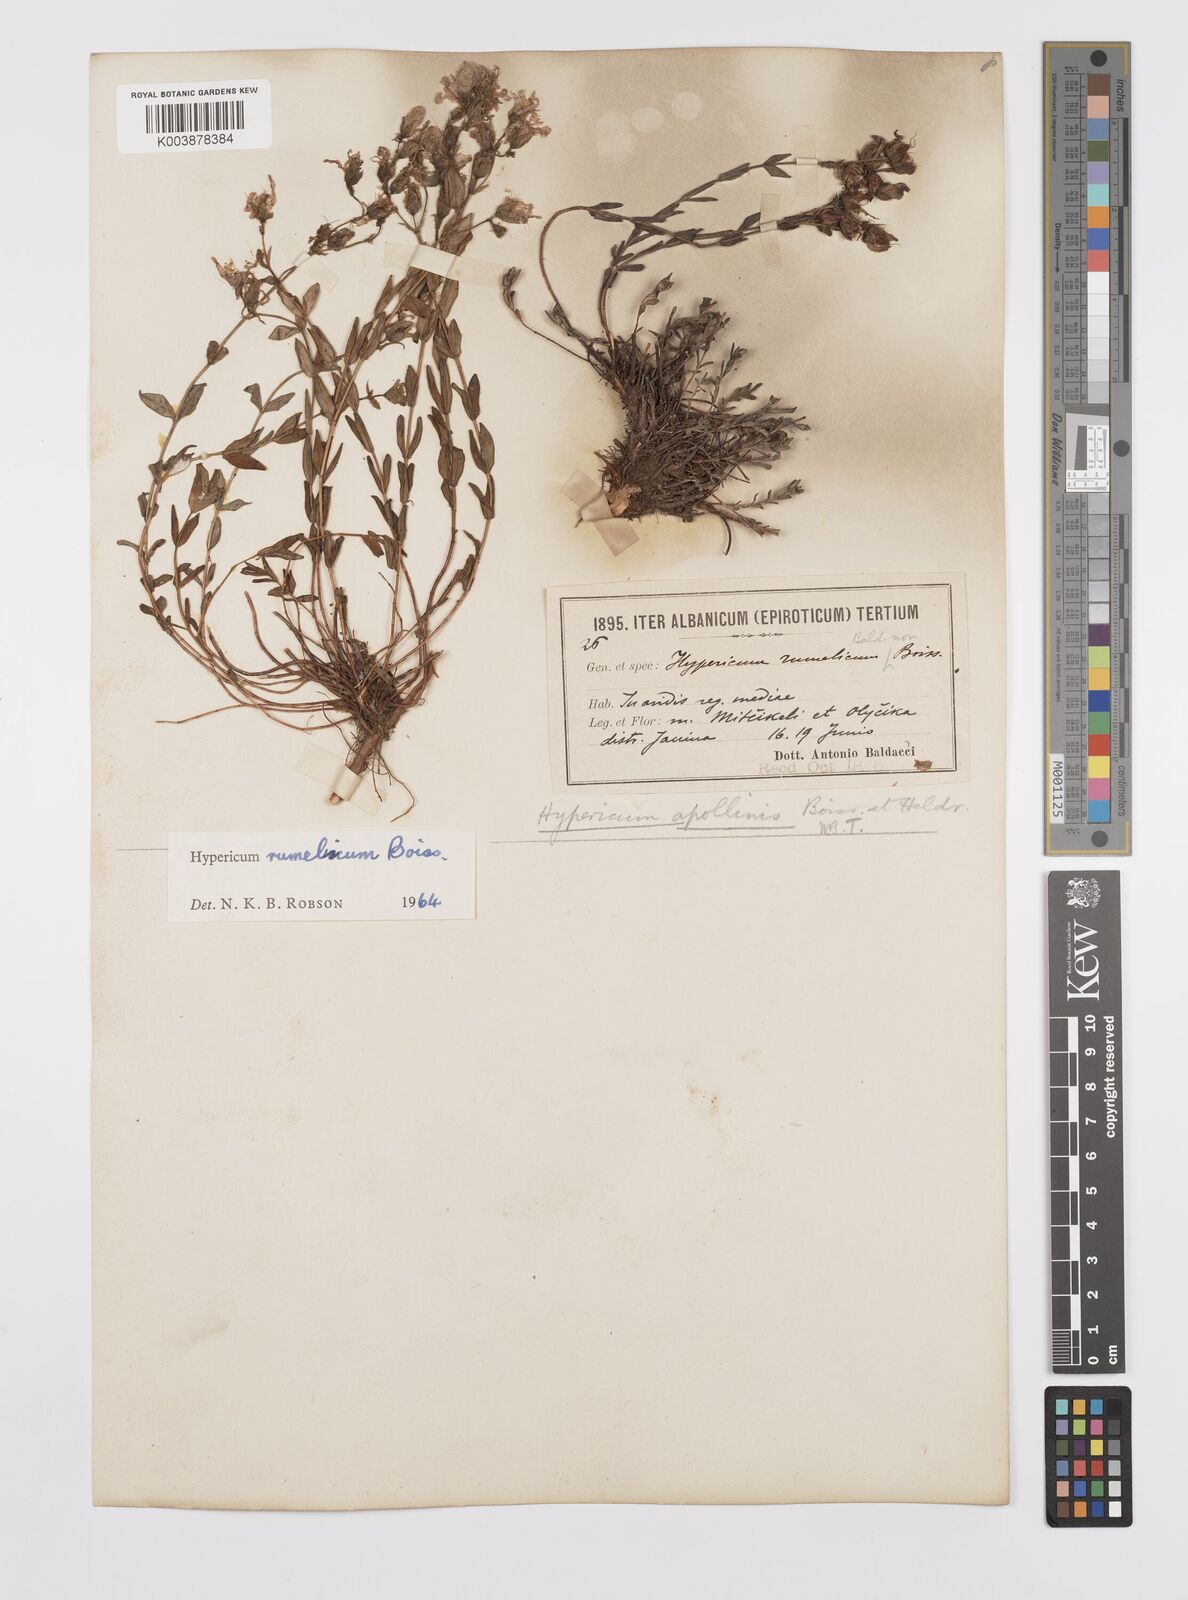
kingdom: Plantae
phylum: Tracheophyta
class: Magnoliopsida
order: Malpighiales
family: Hypericaceae
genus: Hypericum
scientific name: Hypericum rumeliacum
